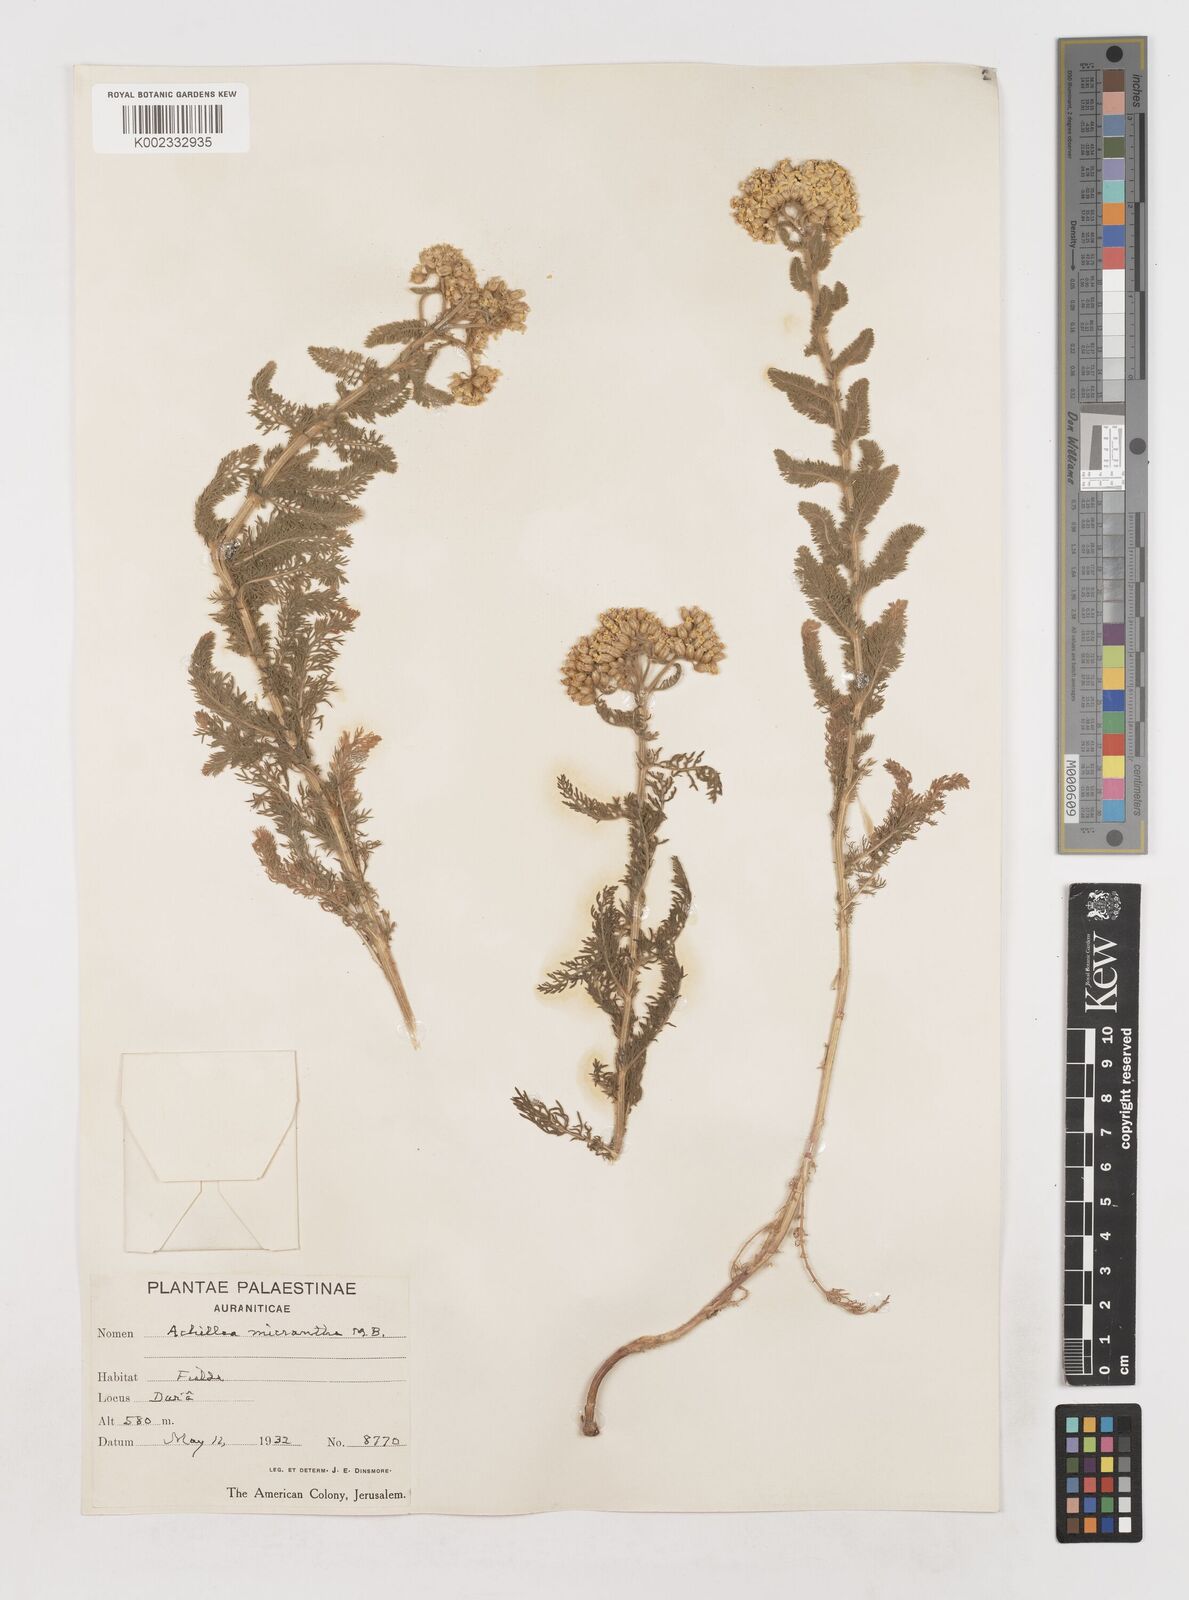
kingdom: Plantae
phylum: Tracheophyta
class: Magnoliopsida
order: Asterales
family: Asteraceae
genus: Achillea
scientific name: Achillea arabica
